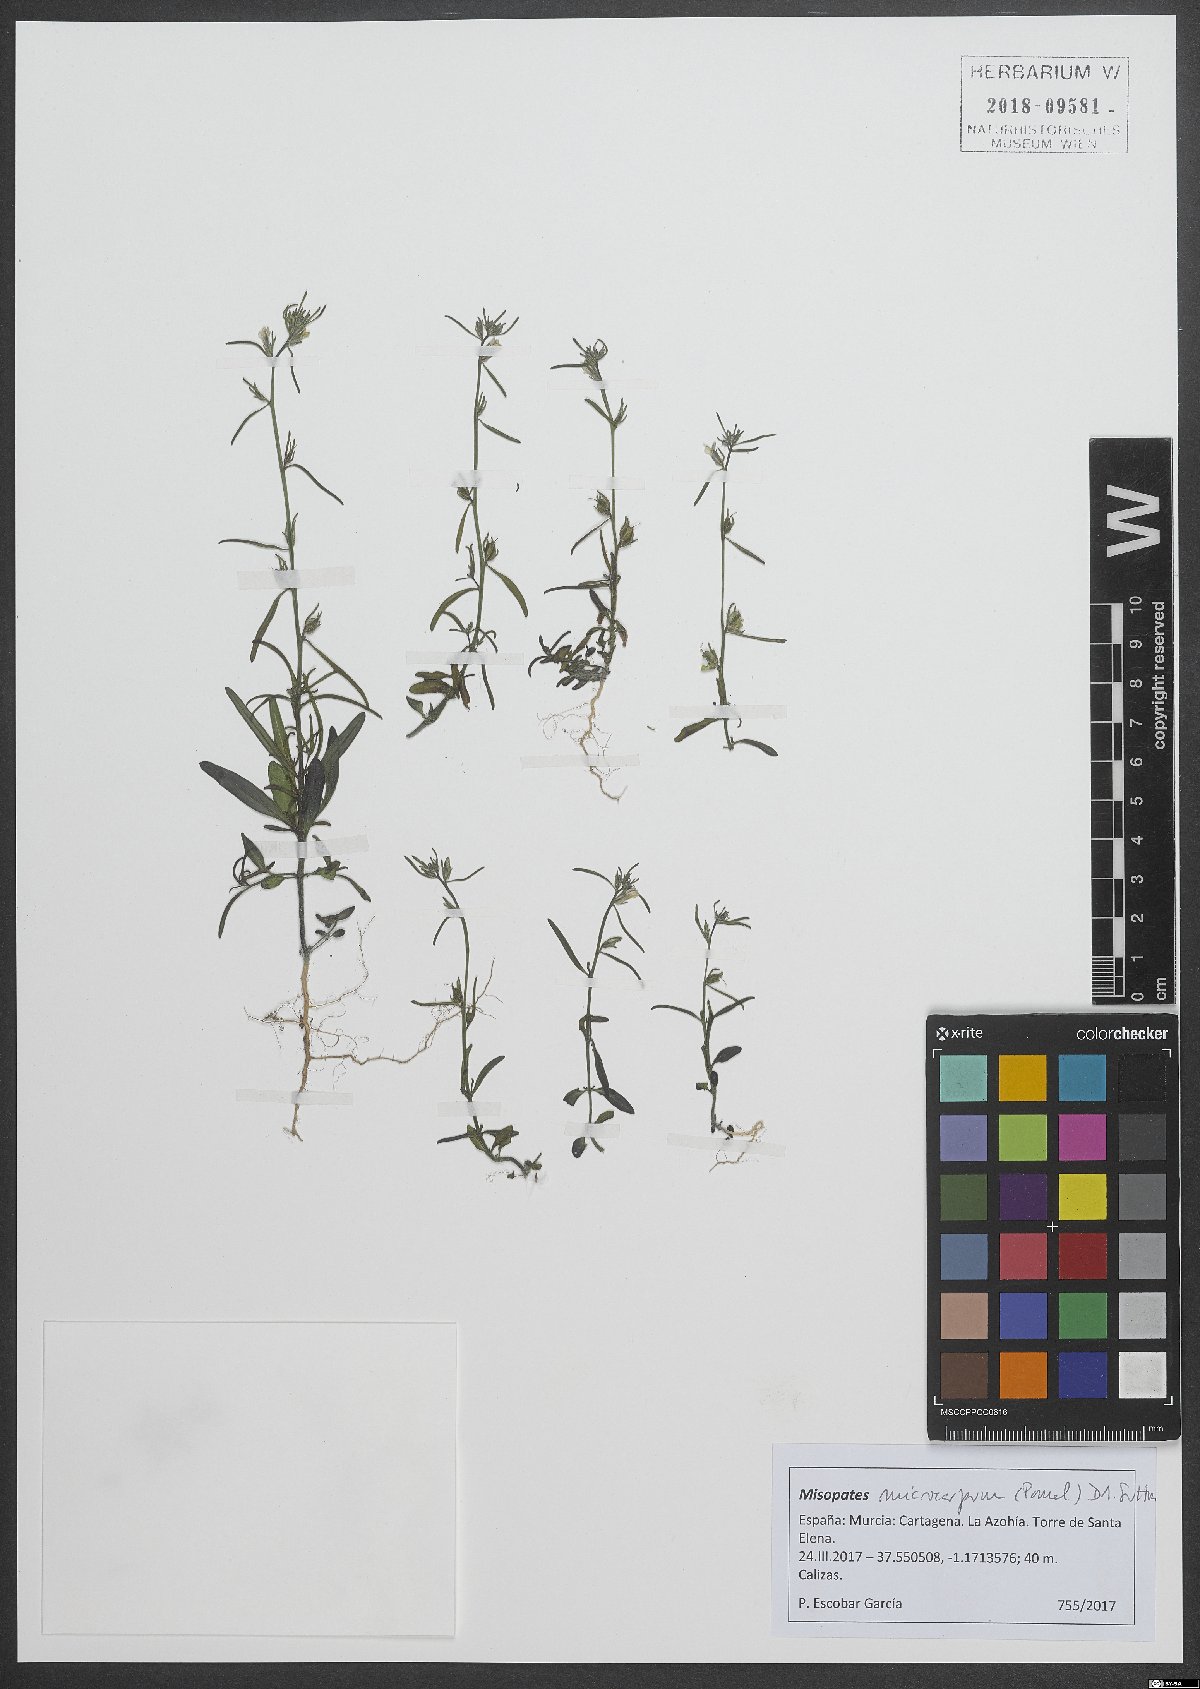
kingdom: Plantae
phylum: Tracheophyta
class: Magnoliopsida
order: Lamiales
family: Plantaginaceae
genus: Misopates
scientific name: Misopates microcarpum
